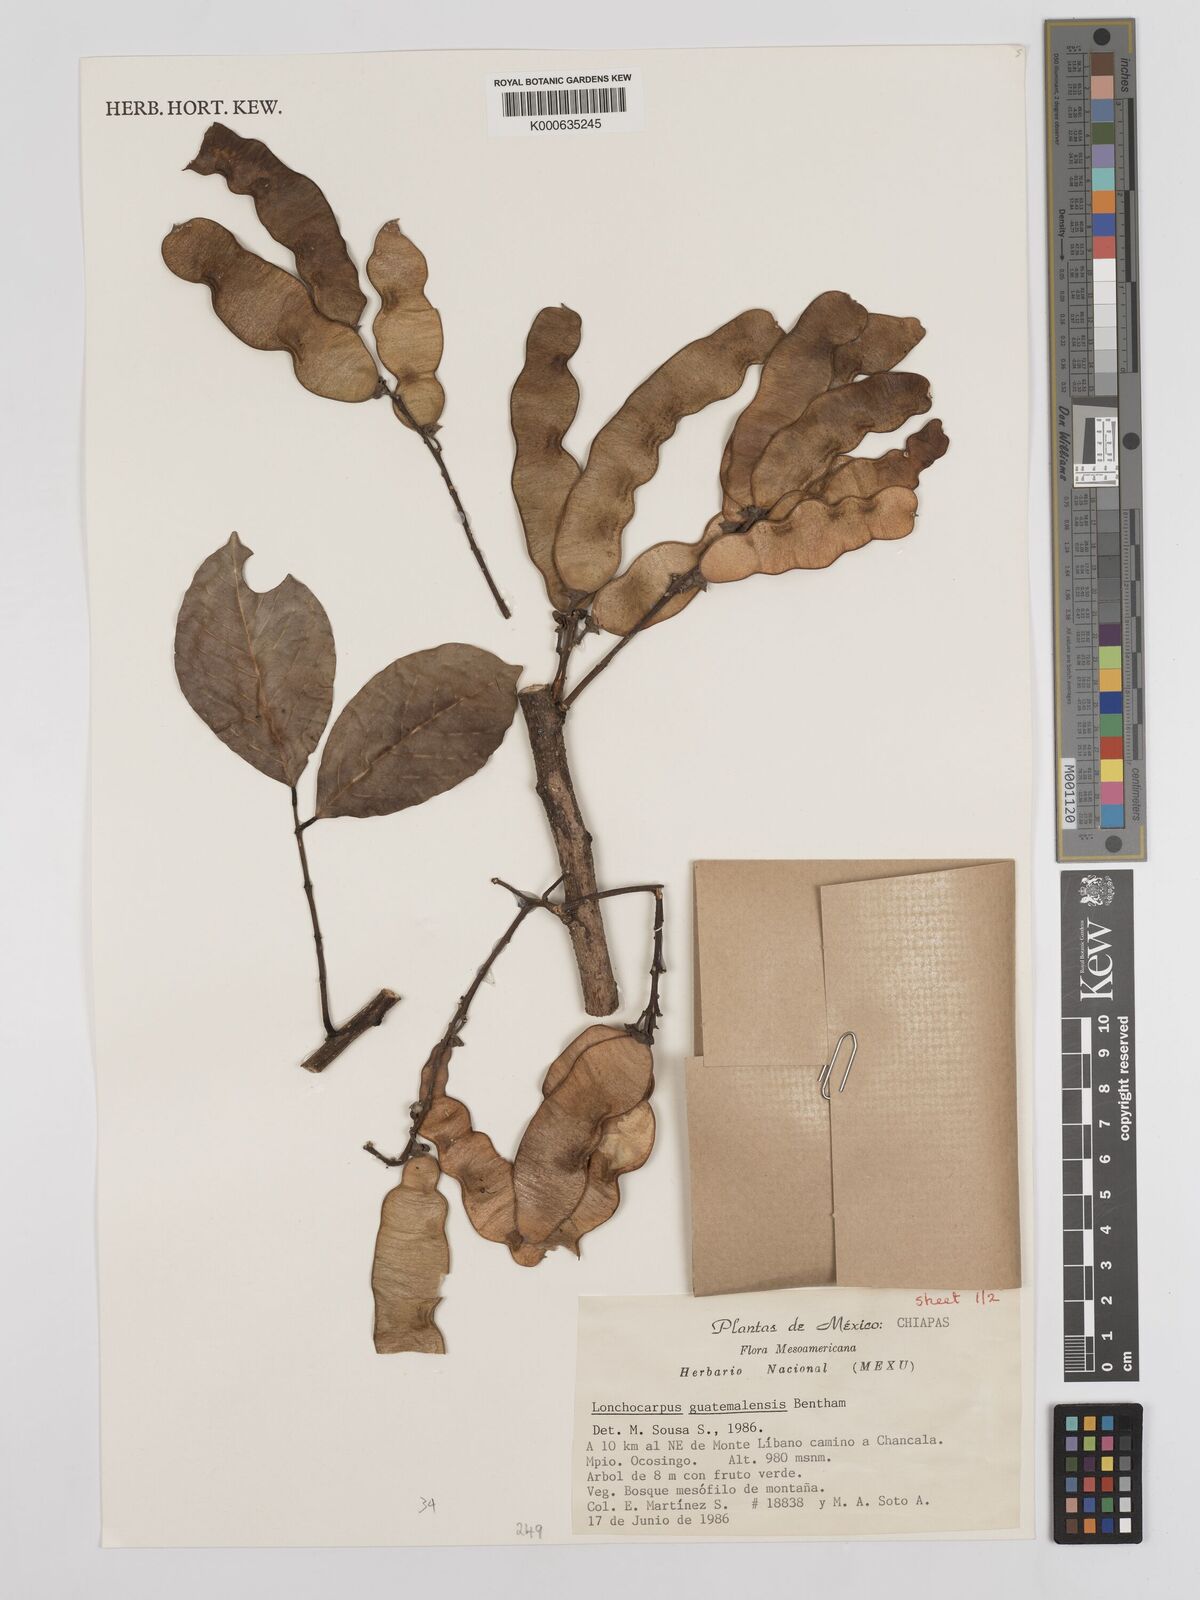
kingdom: Plantae
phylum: Tracheophyta
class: Magnoliopsida
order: Fabales
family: Fabaceae
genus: Lonchocarpus
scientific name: Lonchocarpus guatemalensis
